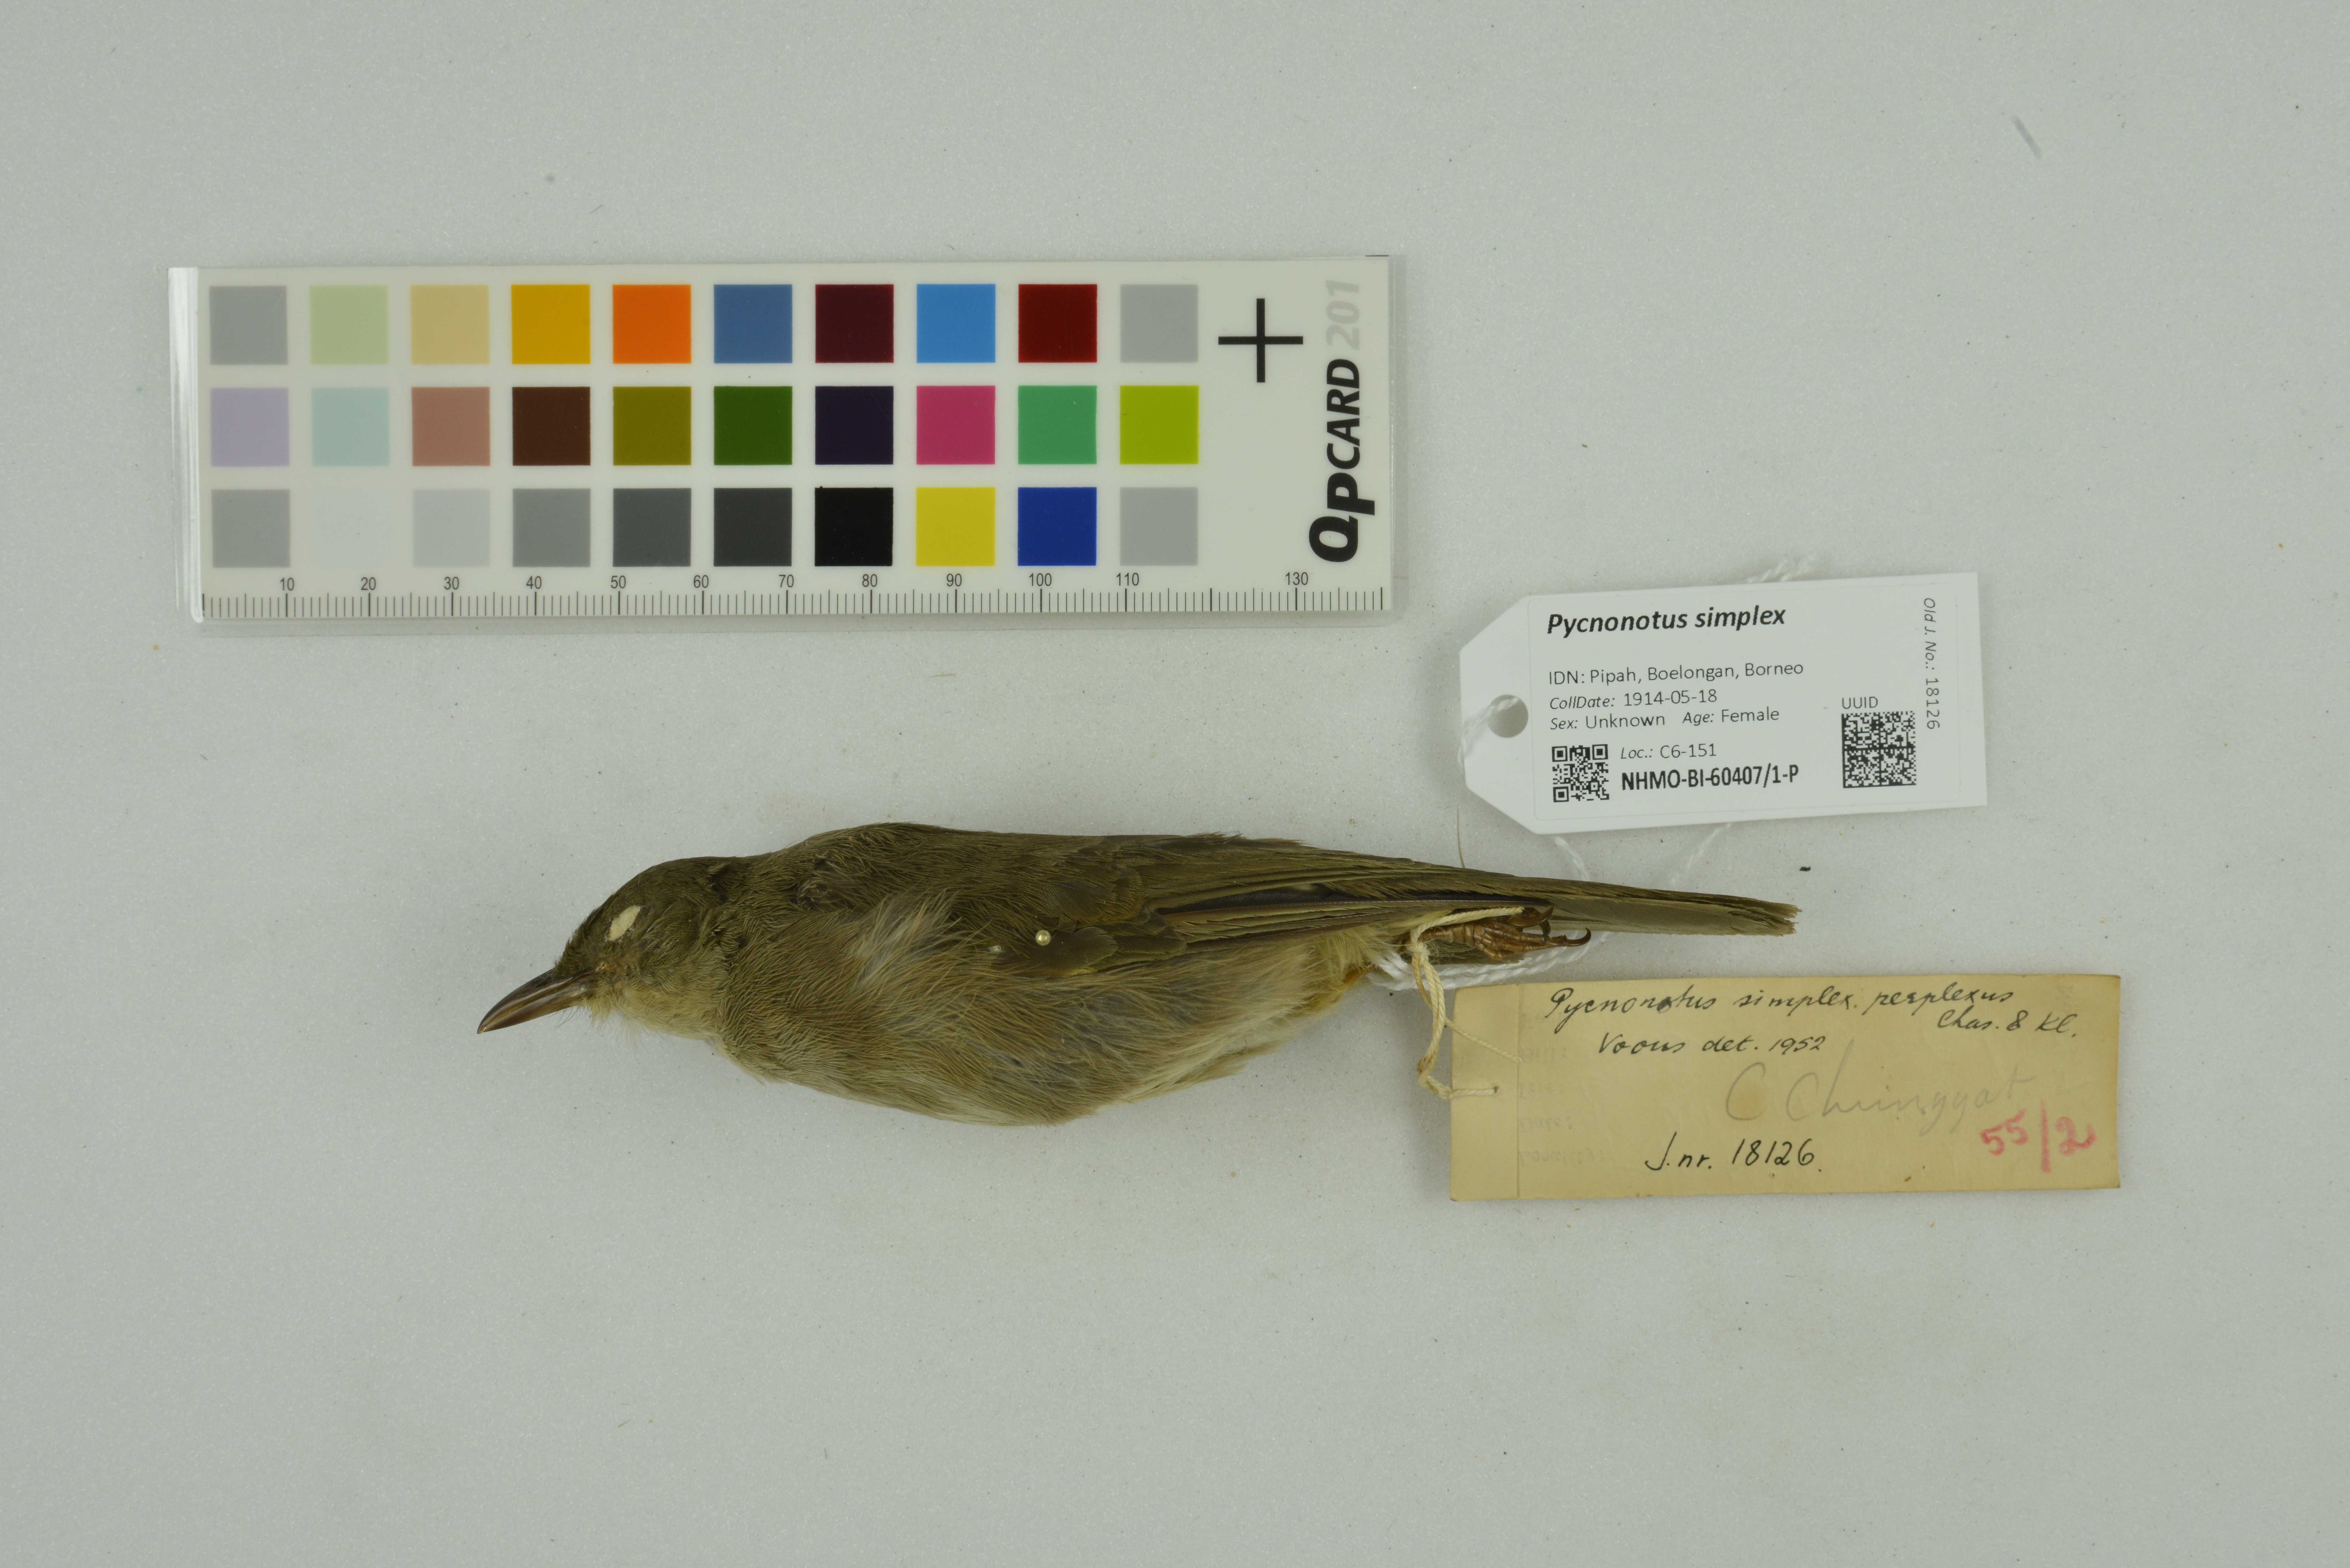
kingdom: Animalia
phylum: Chordata
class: Aves
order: Passeriformes
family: Pycnonotidae
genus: Pycnonotus
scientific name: Pycnonotus simplex
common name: Cream-vented bulbul
